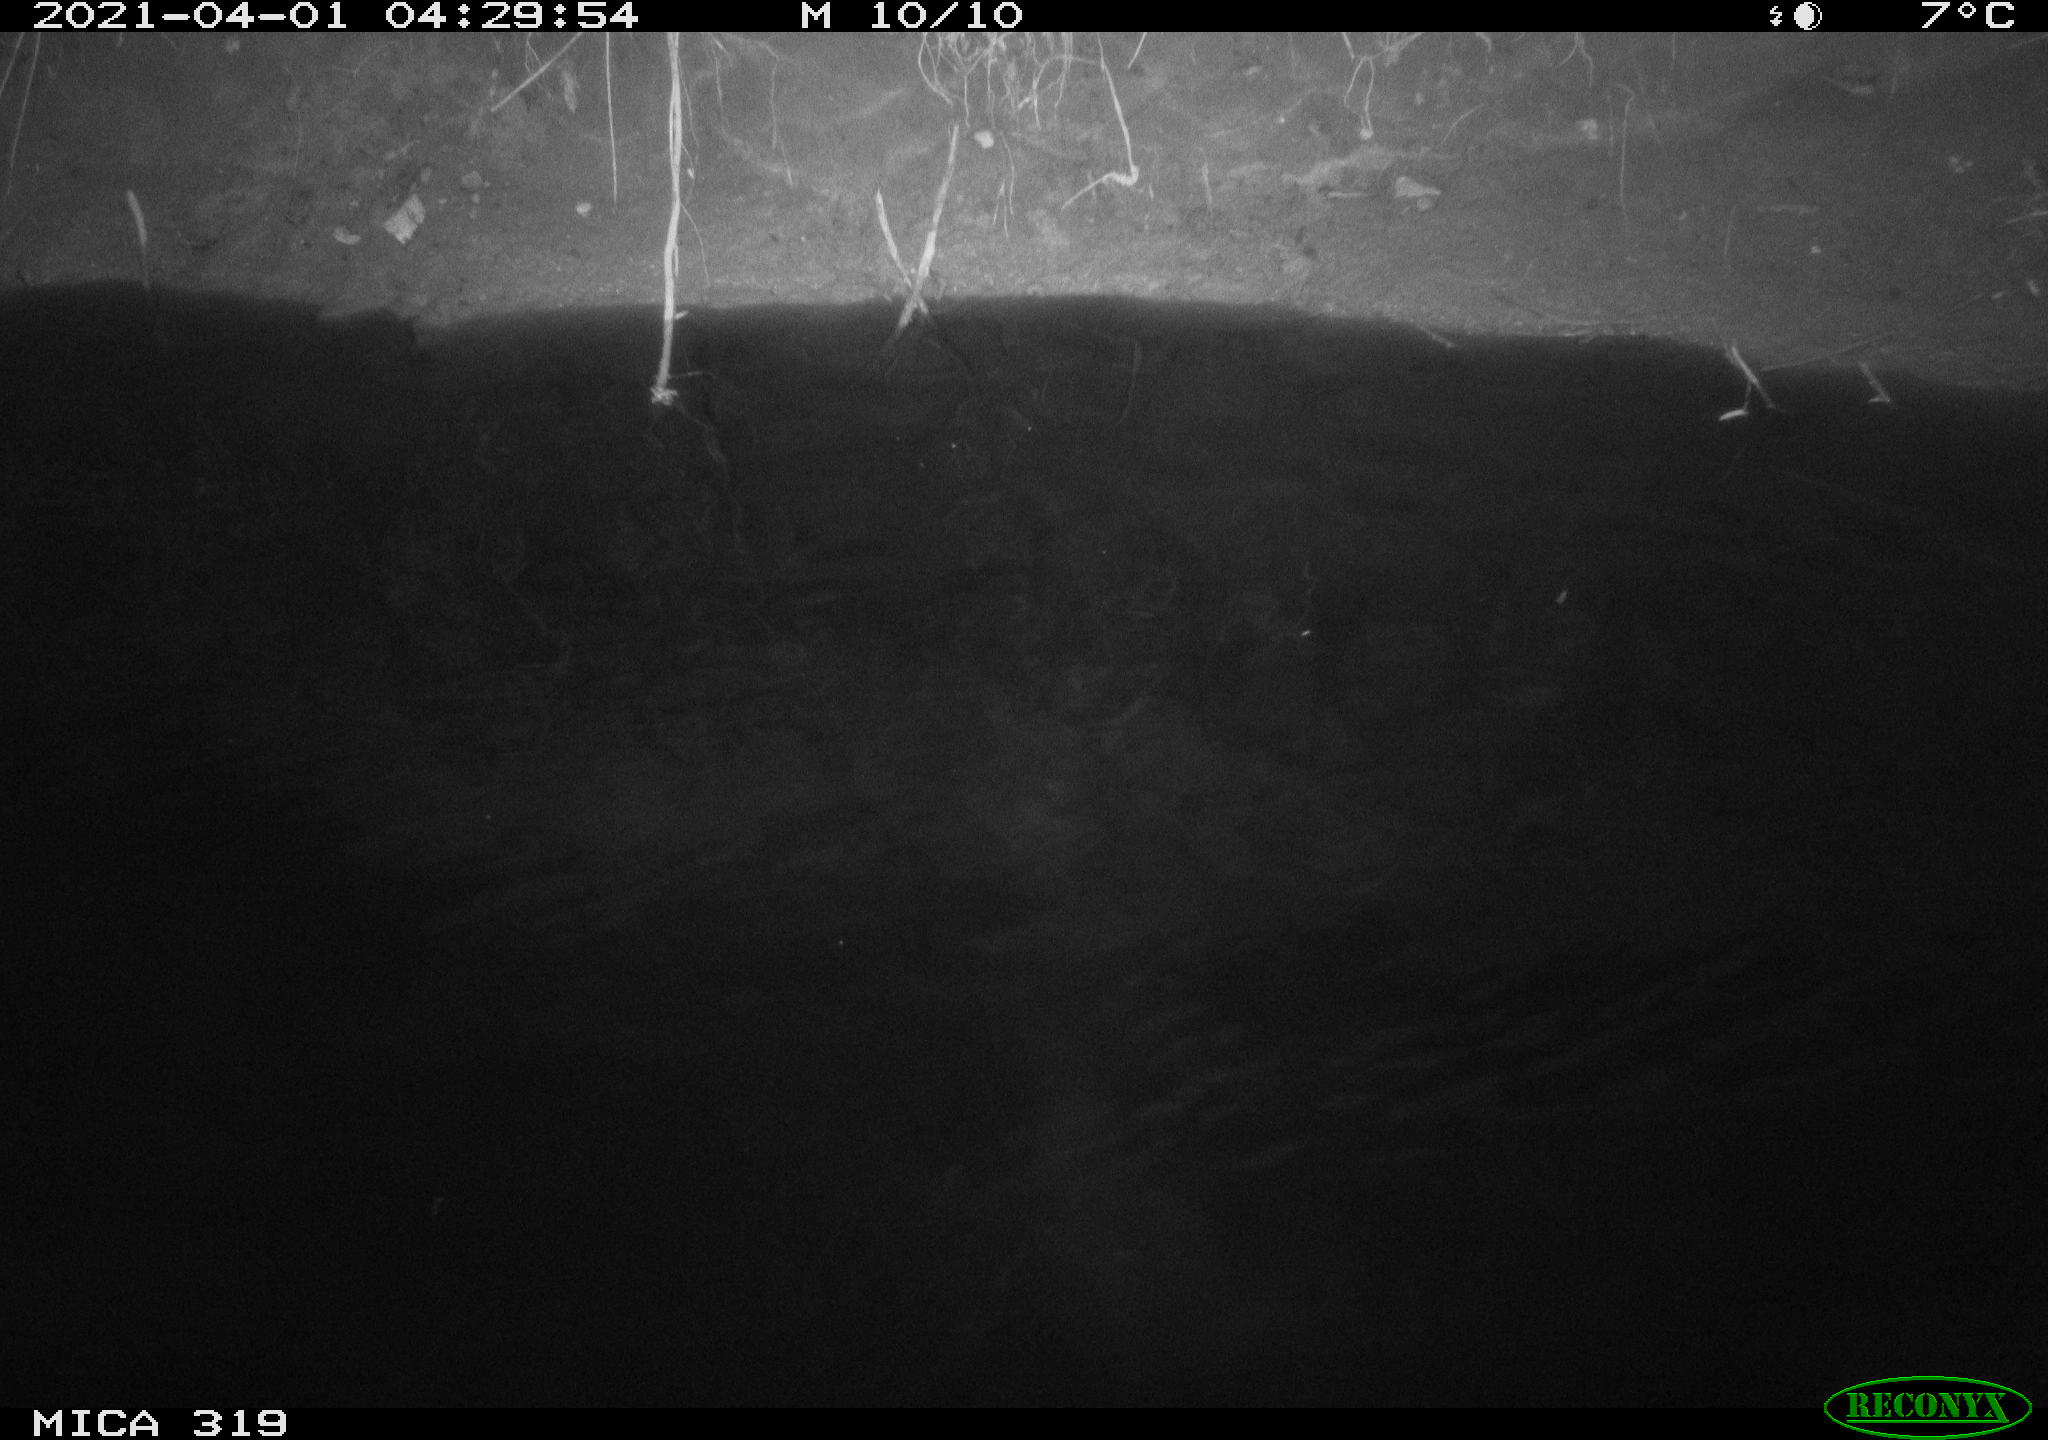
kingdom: Animalia
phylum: Chordata
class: Aves
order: Anseriformes
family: Anatidae
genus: Anas
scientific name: Anas platyrhynchos
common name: Mallard
